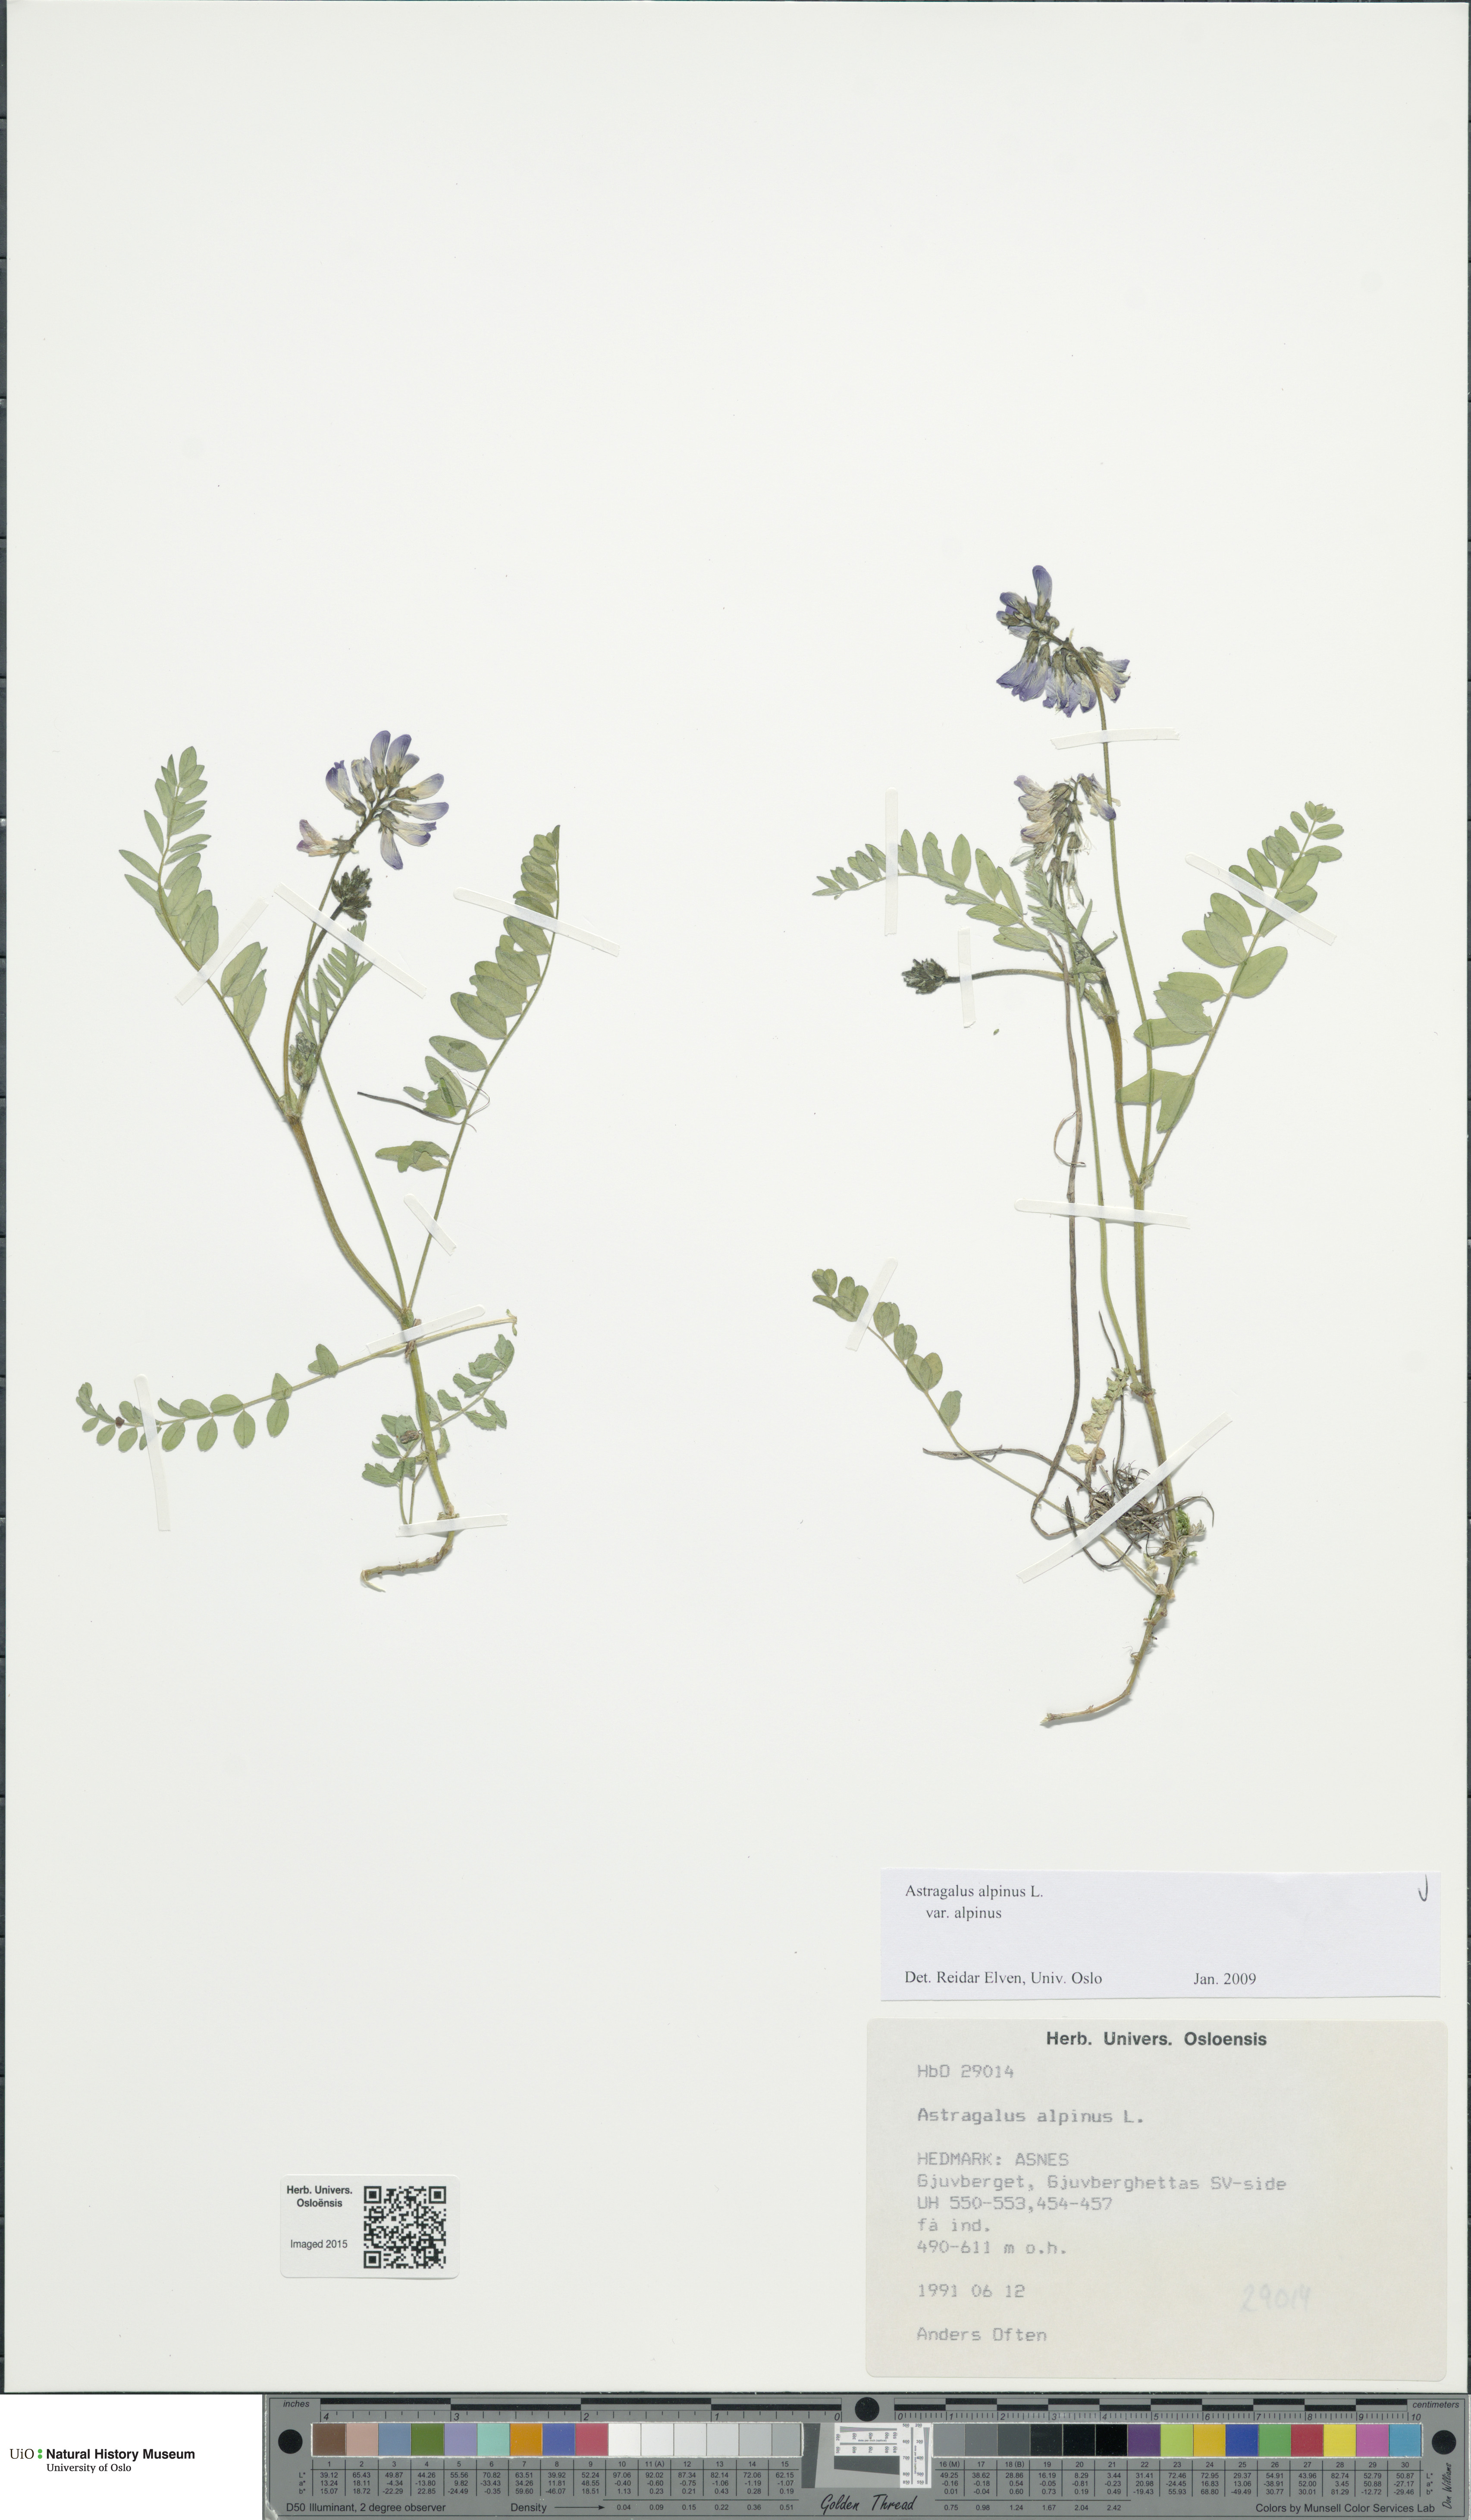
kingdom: Plantae
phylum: Tracheophyta
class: Magnoliopsida
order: Fabales
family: Fabaceae
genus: Astragalus
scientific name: Astragalus alpinus
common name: Alpine milk-vetch
